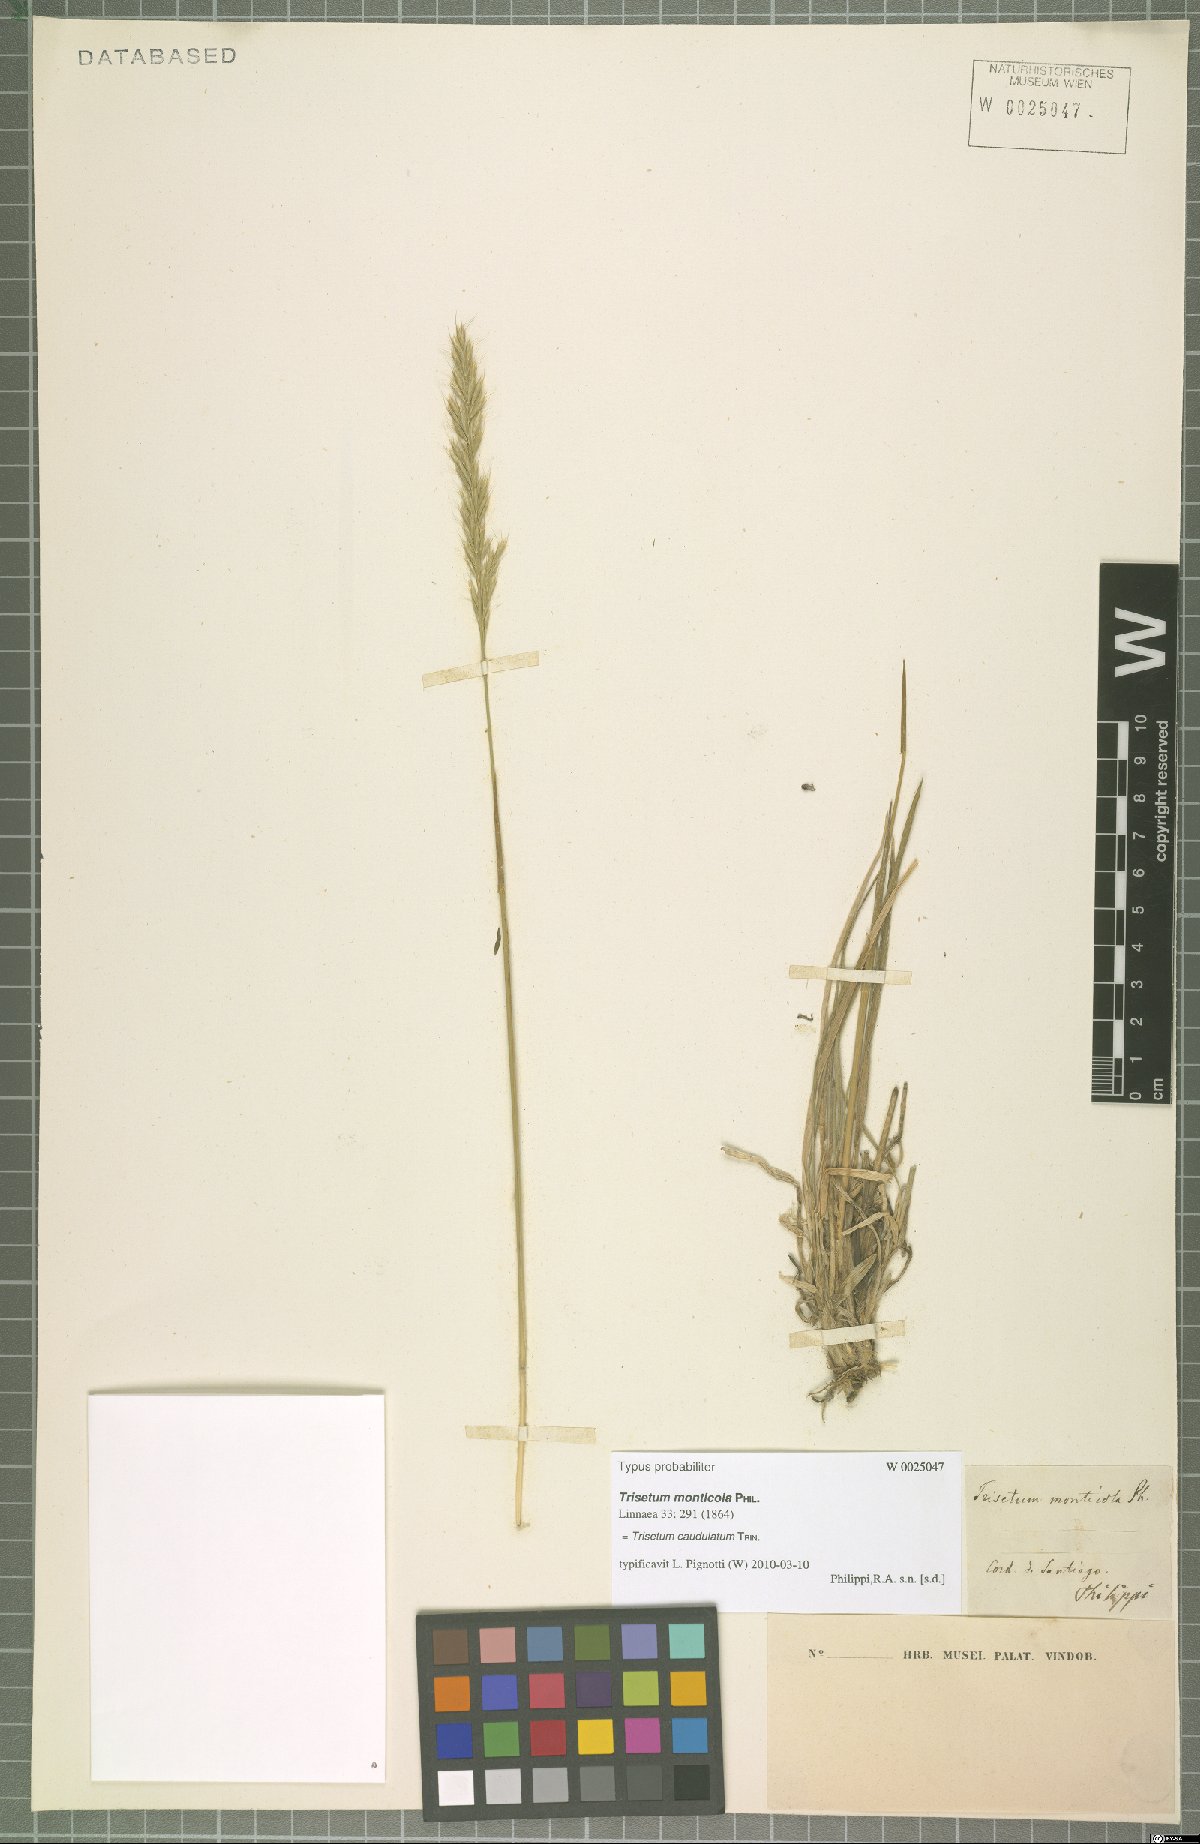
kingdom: Plantae
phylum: Tracheophyta
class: Liliopsida
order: Poales
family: Poaceae
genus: Trisetum
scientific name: Trisetum caudulatum
